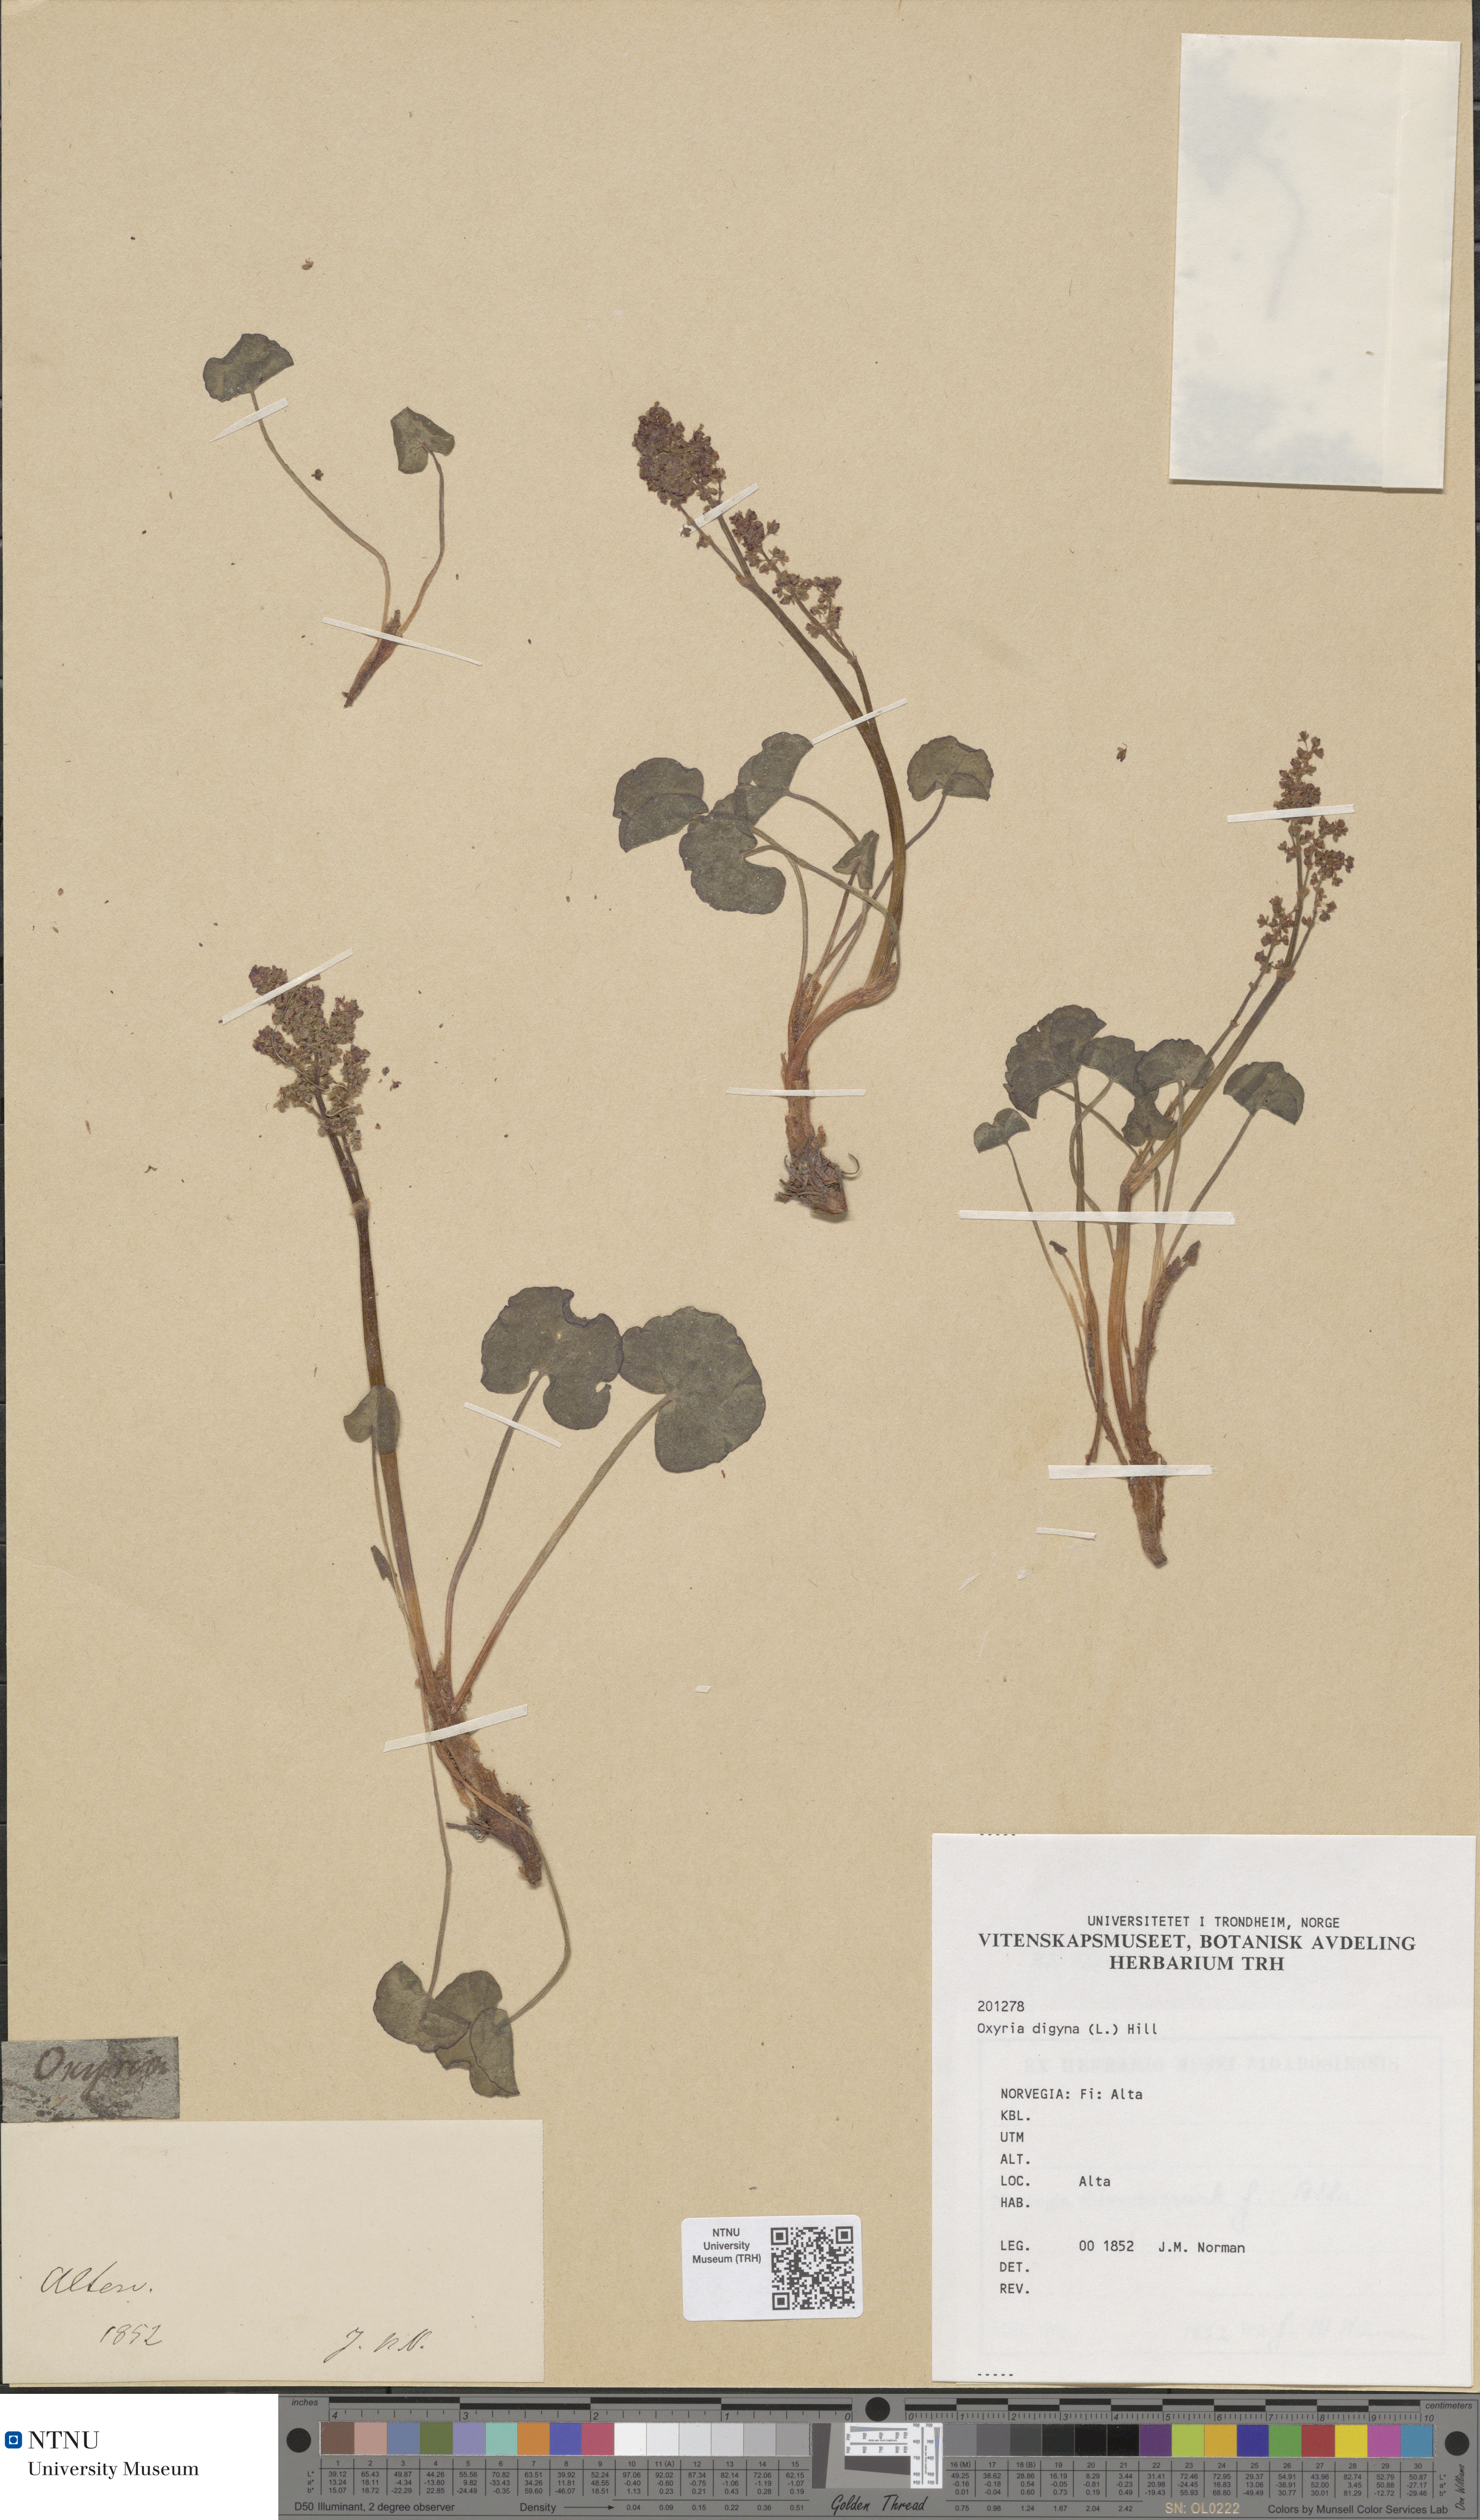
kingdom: Plantae
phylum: Tracheophyta
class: Magnoliopsida
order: Caryophyllales
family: Polygonaceae
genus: Oxyria
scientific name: Oxyria digyna
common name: Alpine mountain-sorrel
